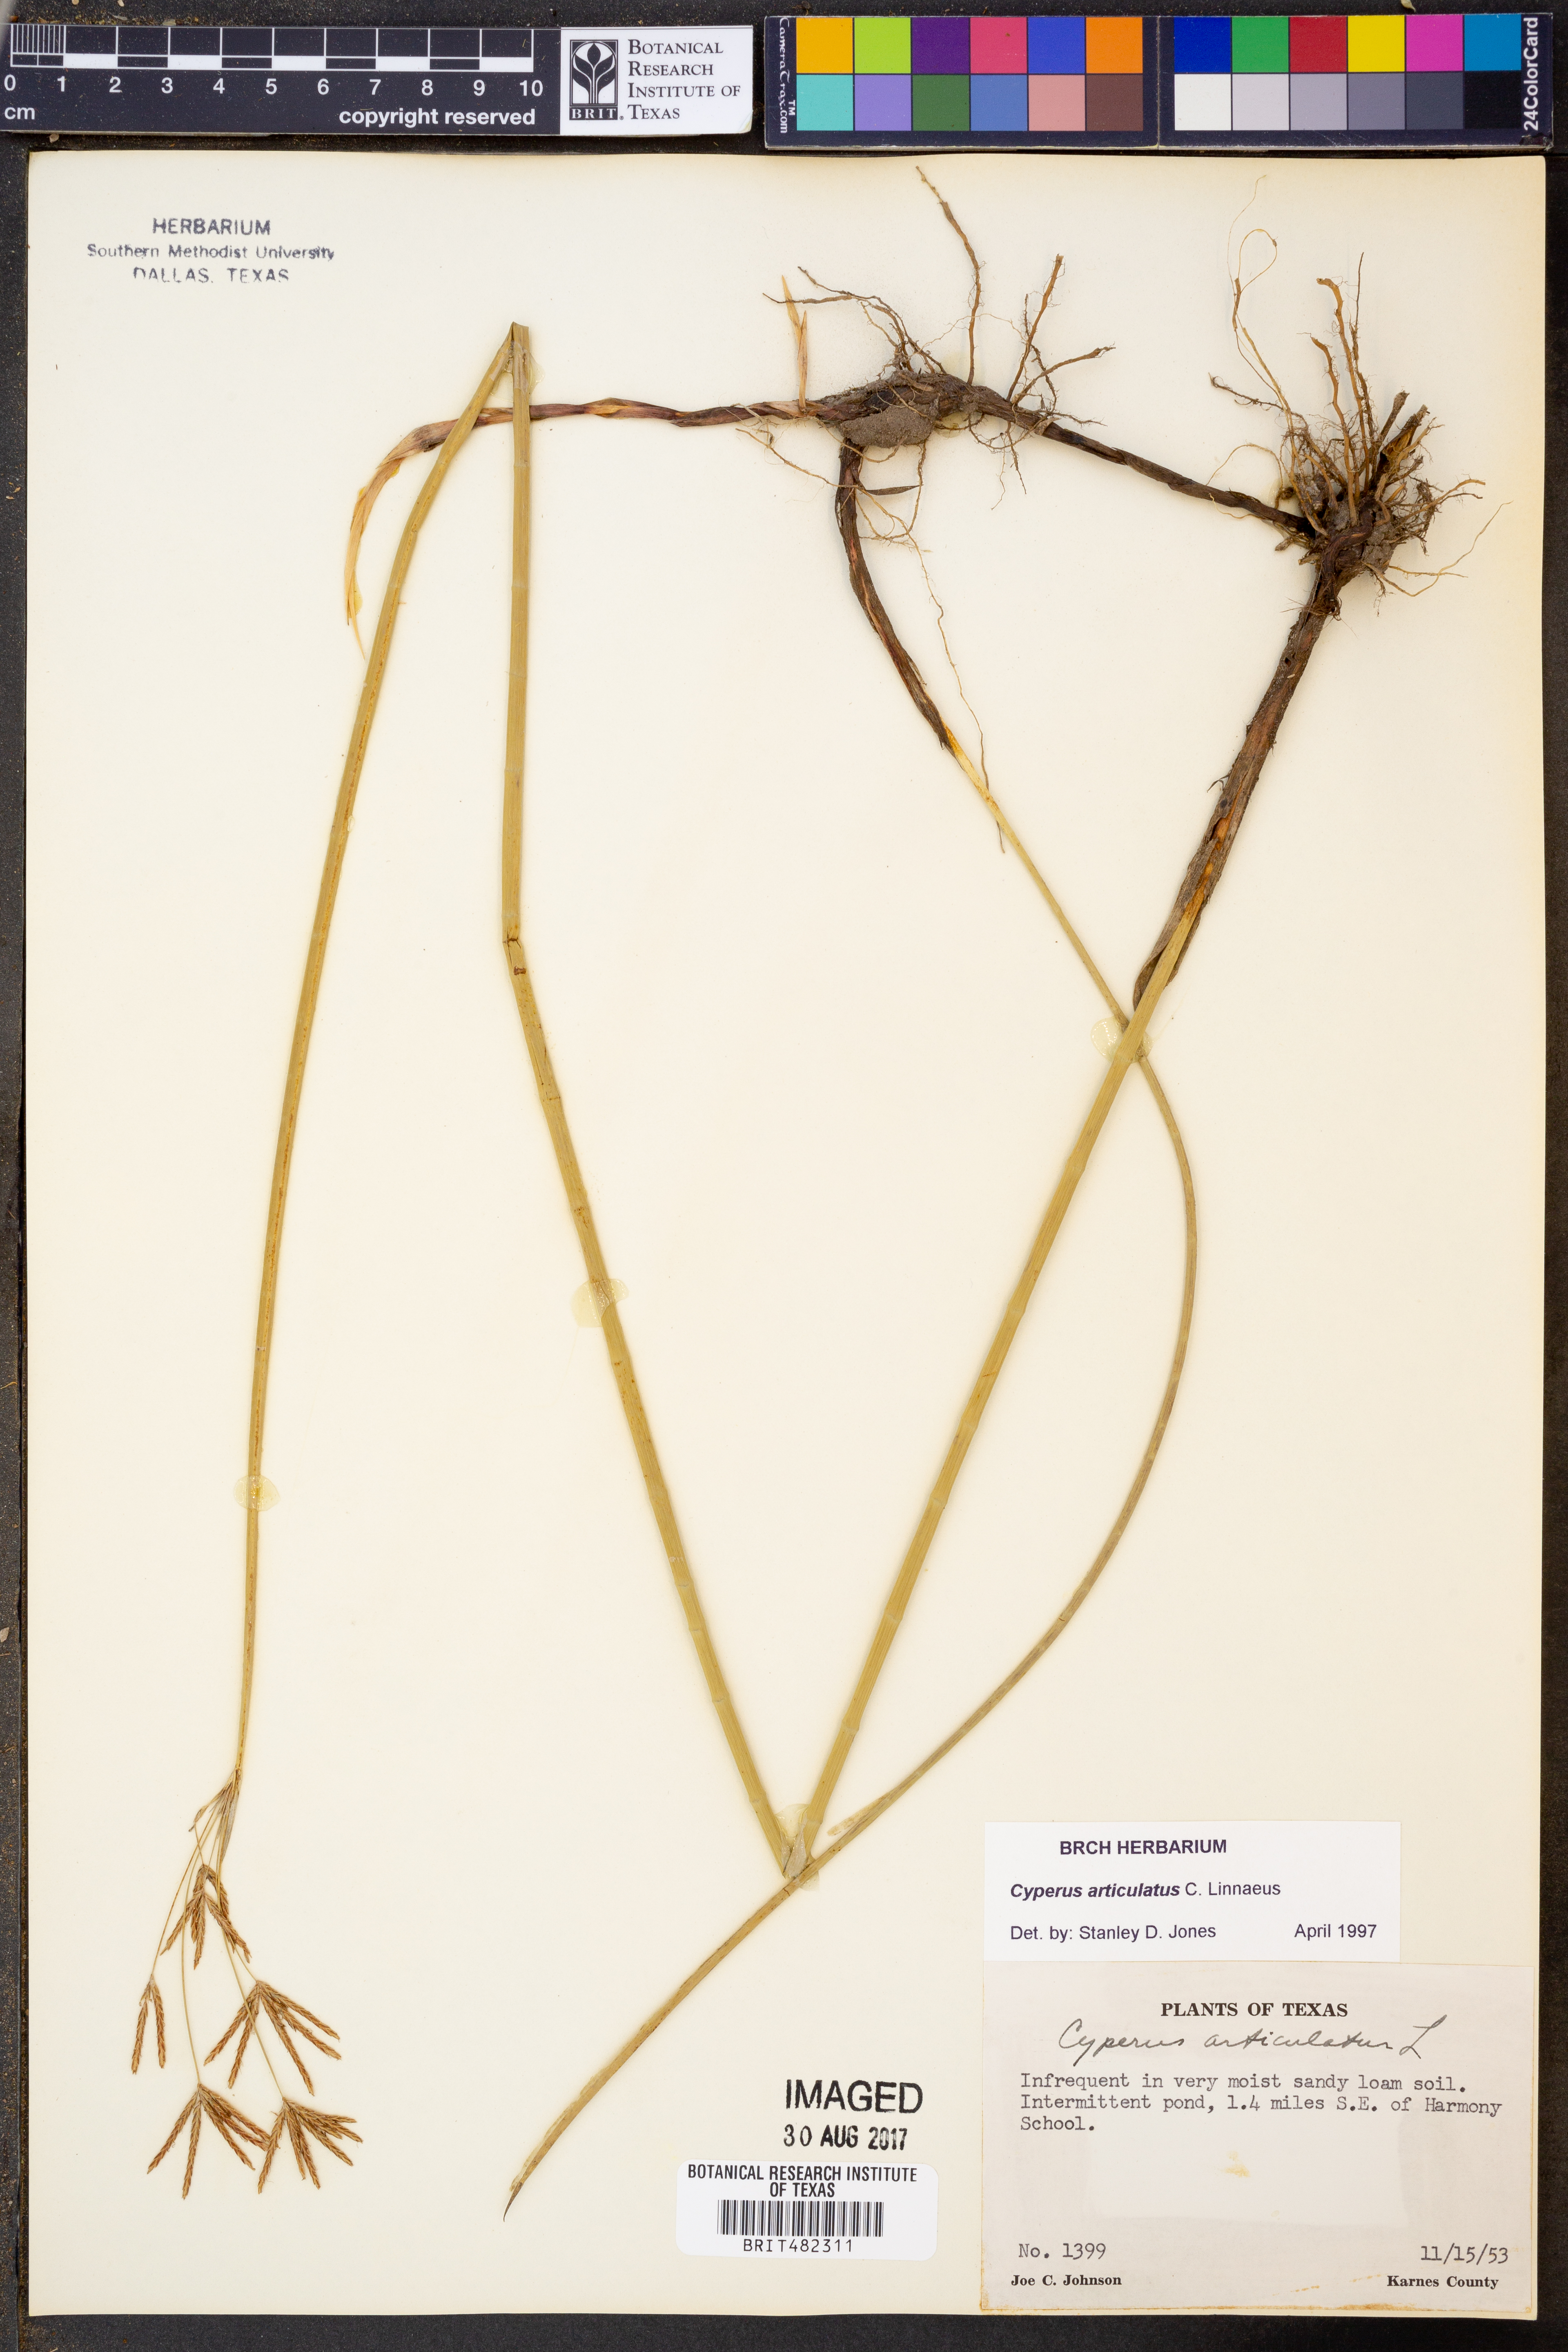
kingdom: Plantae
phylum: Tracheophyta
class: Liliopsida
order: Poales
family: Cyperaceae
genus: Cyperus
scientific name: Cyperus articulatus
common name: Jointed flatsedge
